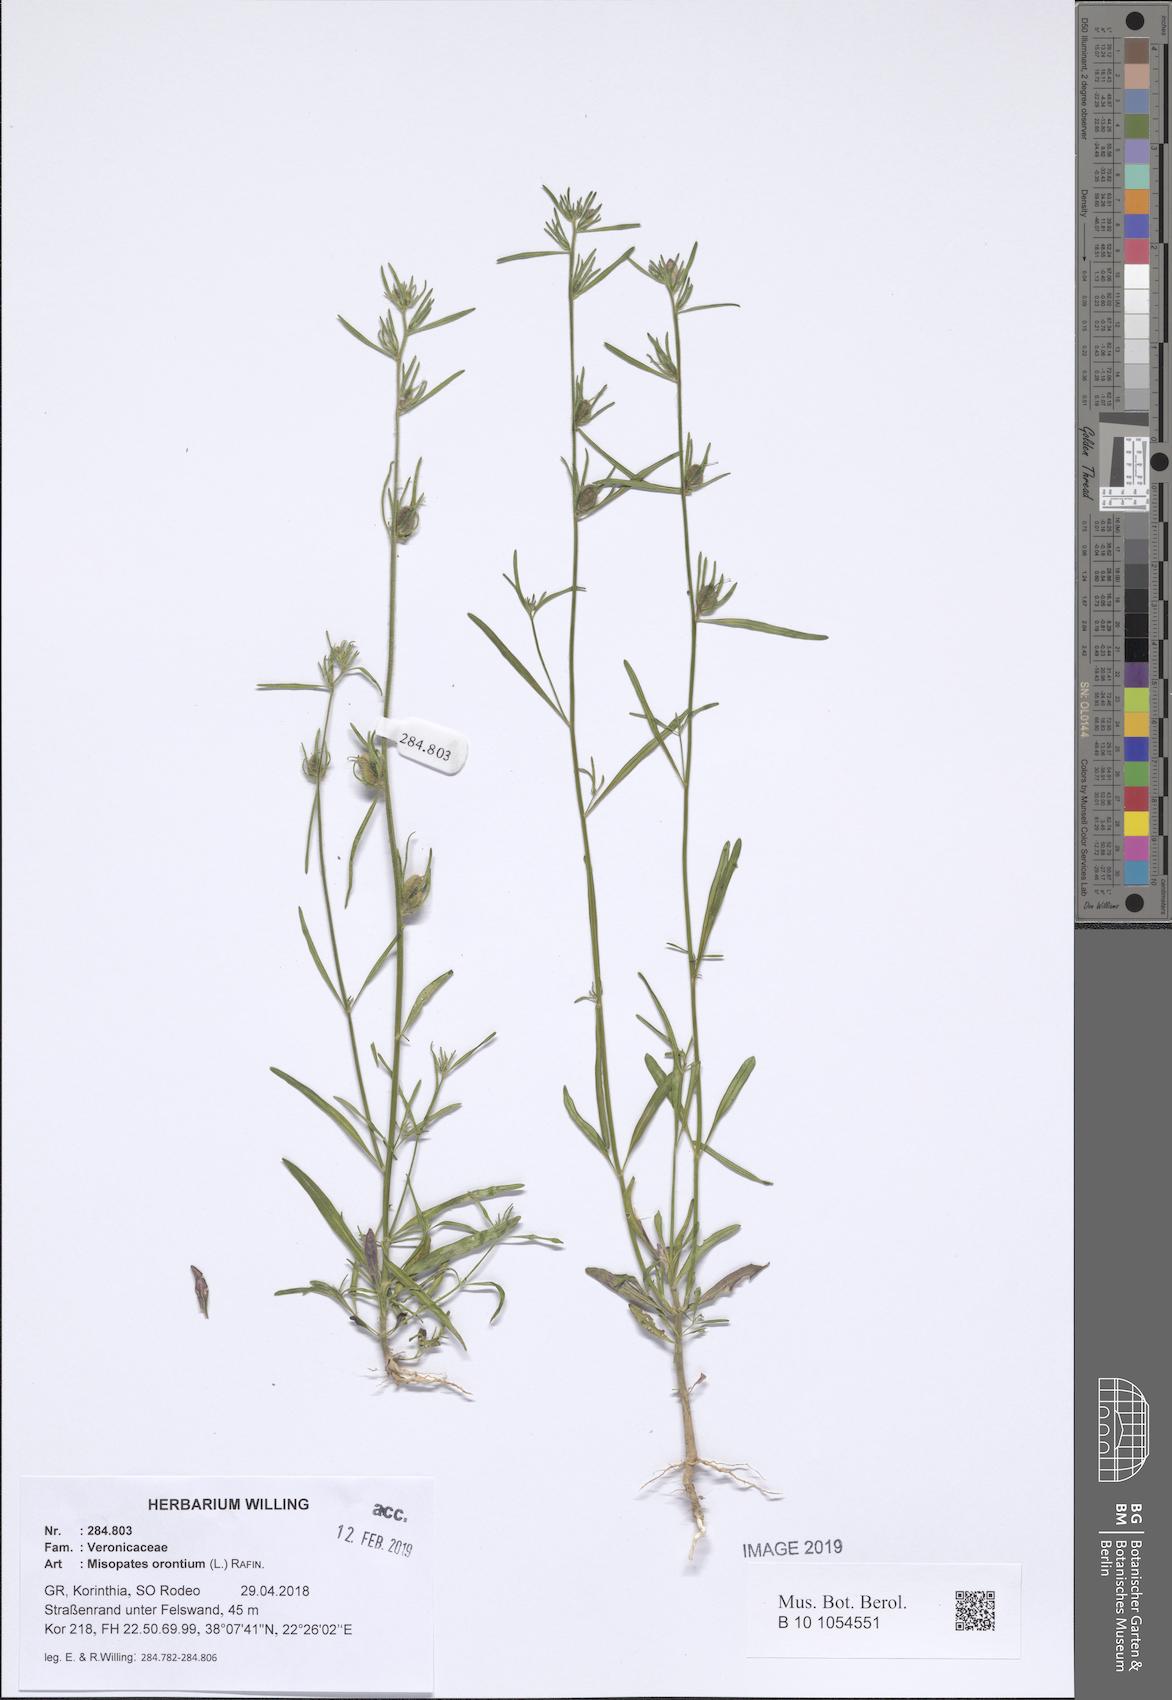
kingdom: Plantae
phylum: Tracheophyta
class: Magnoliopsida
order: Lamiales
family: Plantaginaceae
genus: Misopates
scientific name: Misopates orontium
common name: Weasel's-snout
